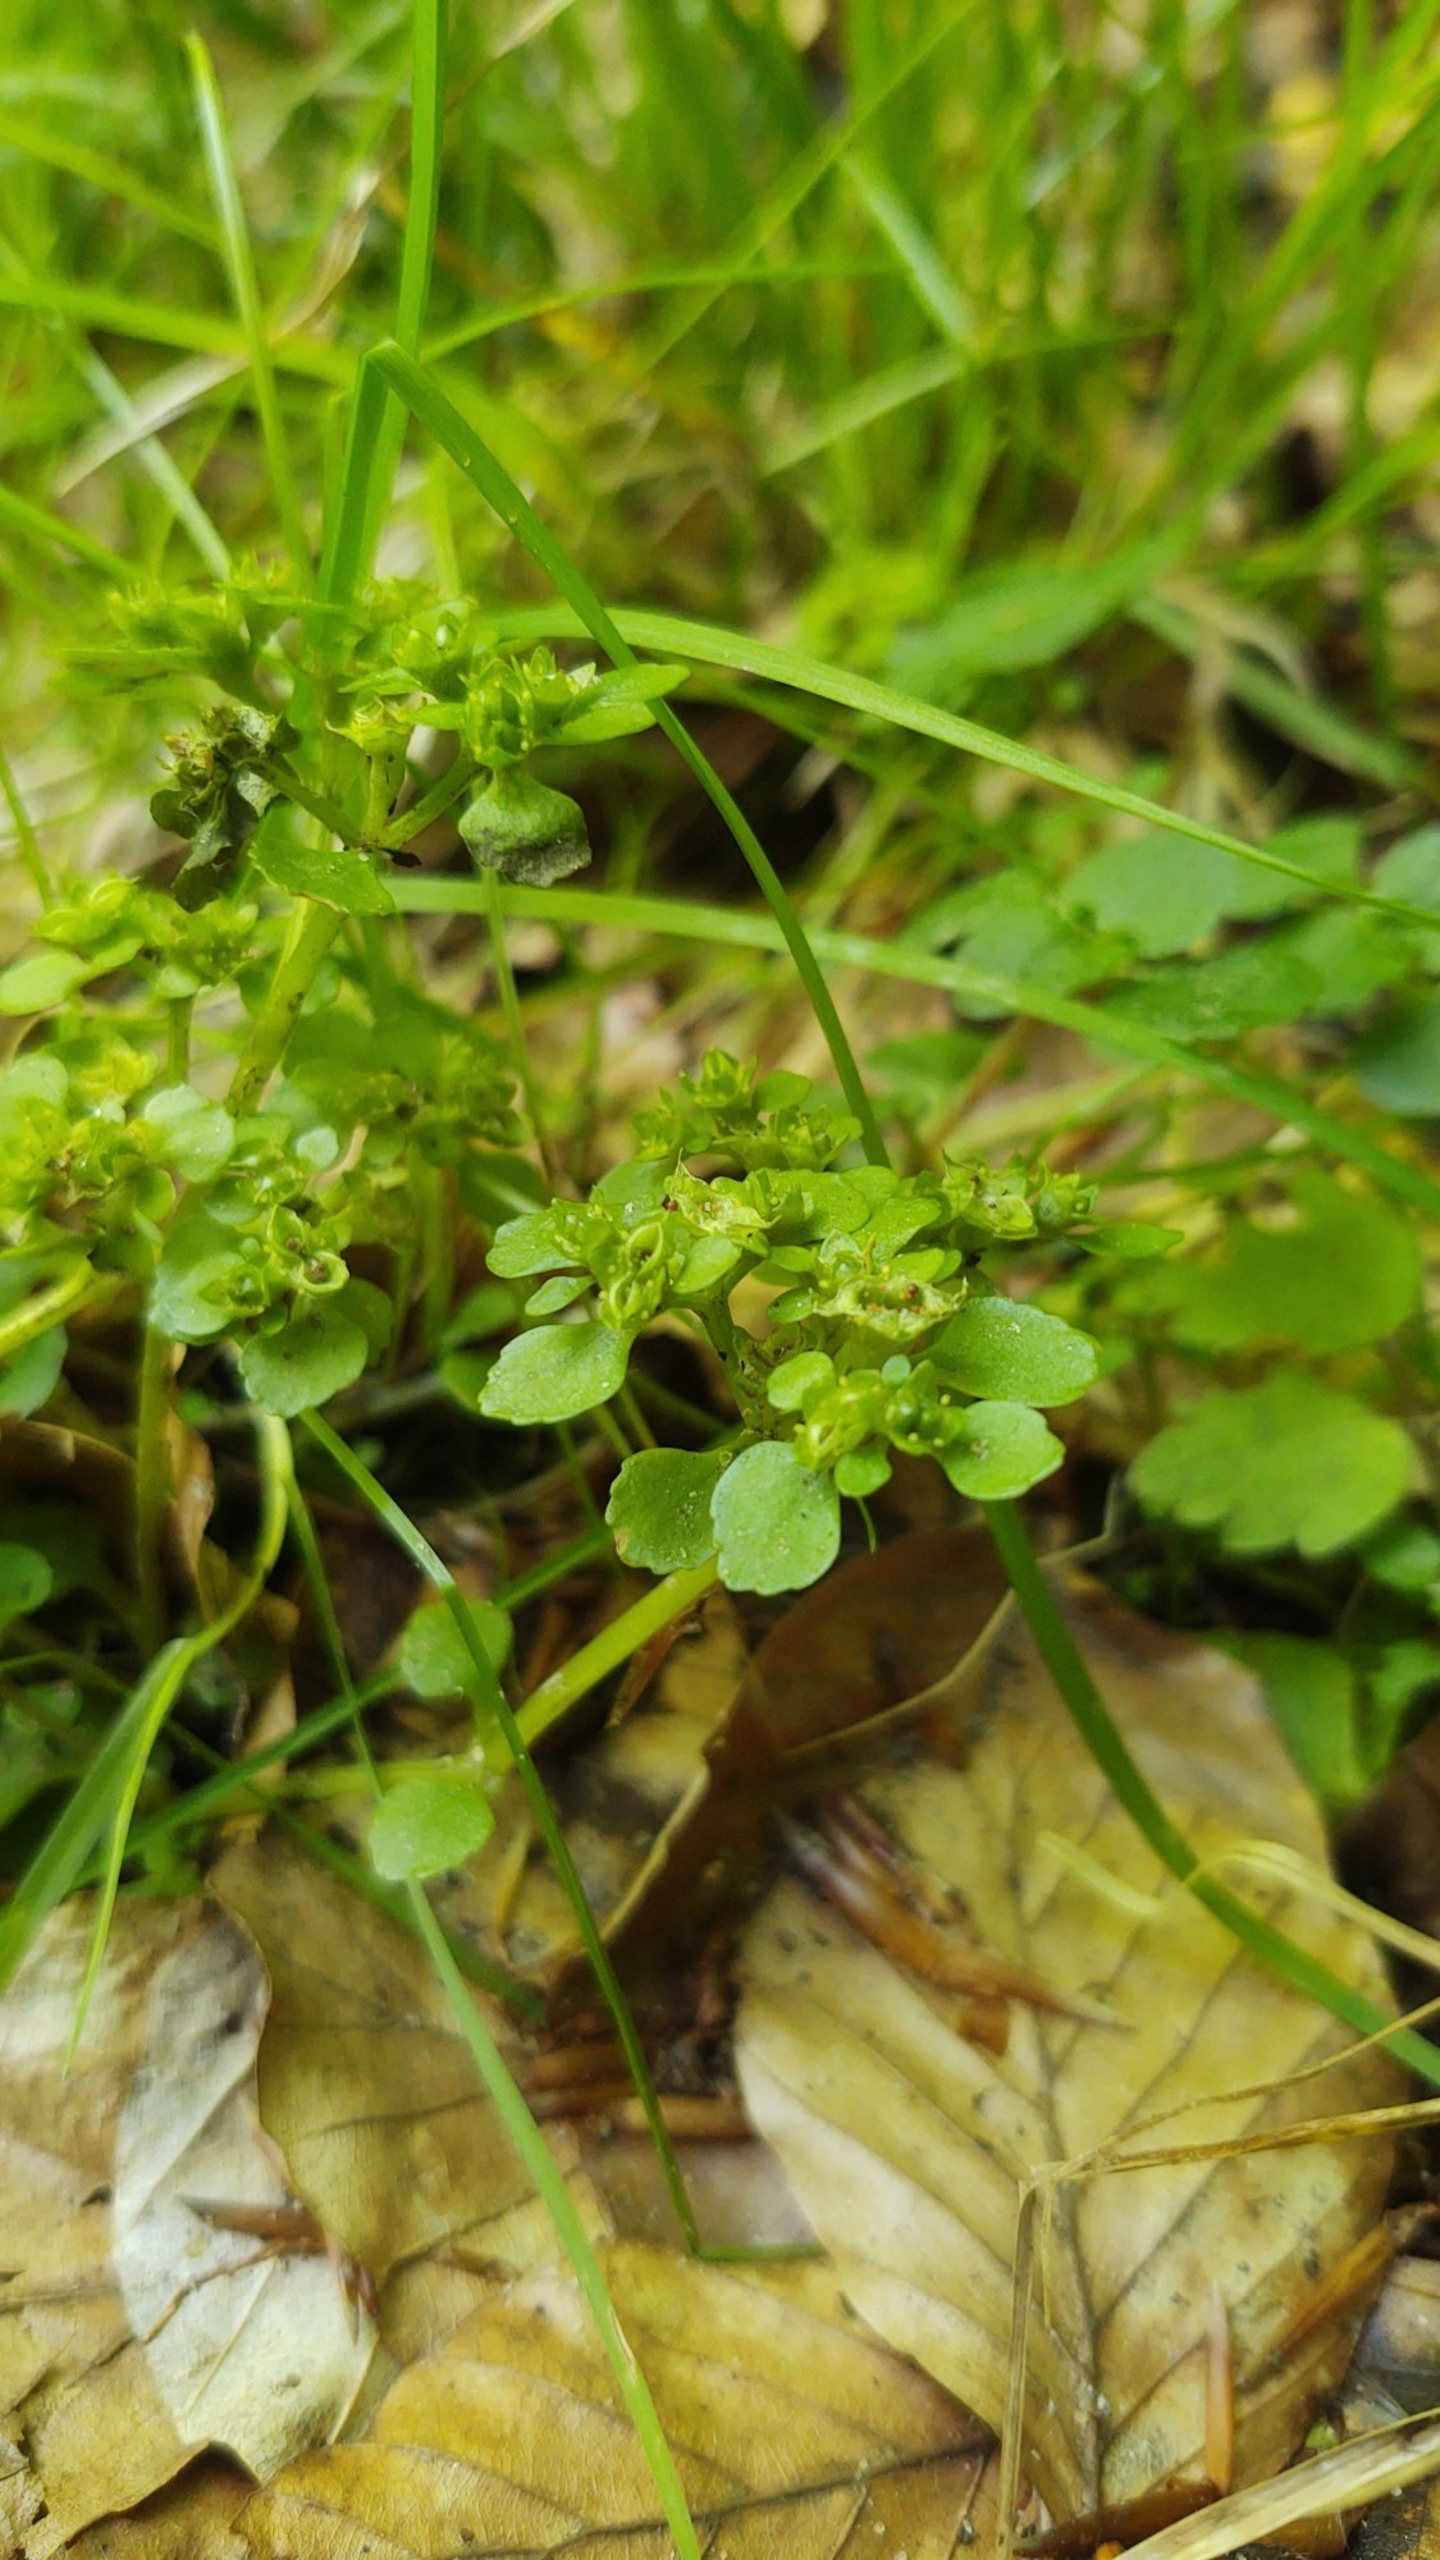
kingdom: Plantae
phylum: Tracheophyta
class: Magnoliopsida
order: Saxifragales
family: Saxifragaceae
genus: Chrysosplenium
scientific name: Chrysosplenium oppositifolium
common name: Småbladet milturt
